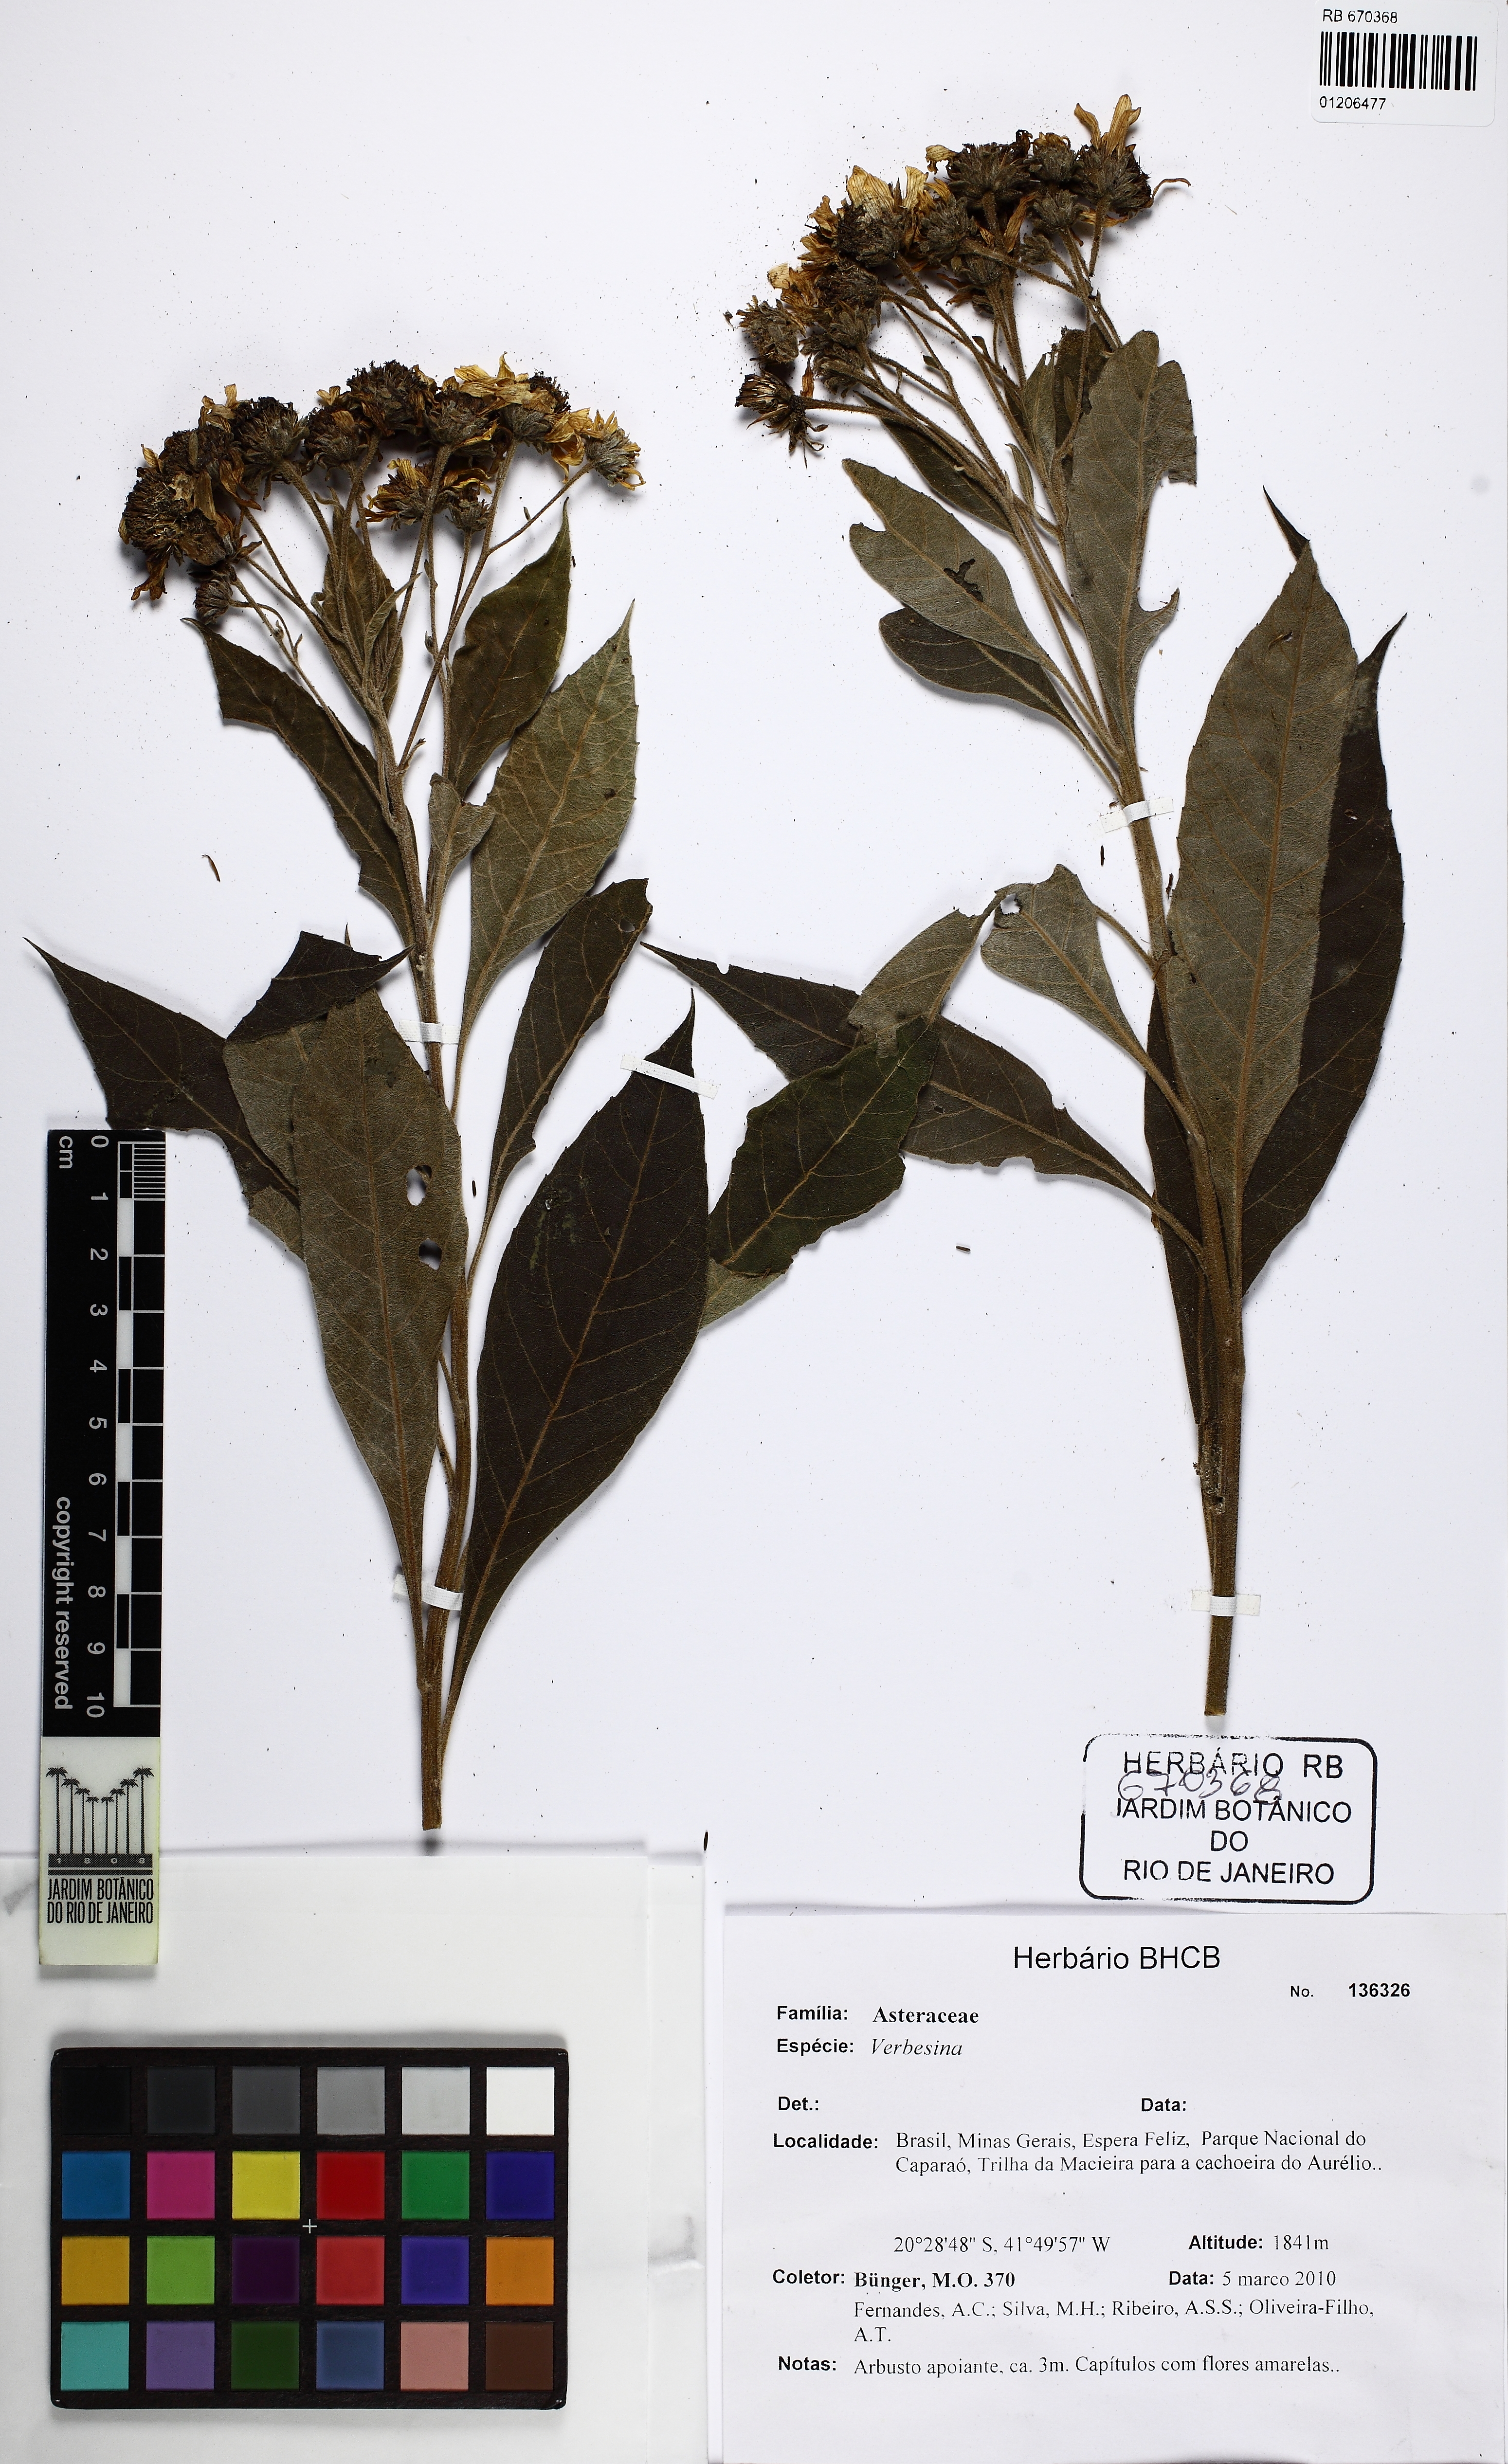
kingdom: Plantae
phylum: Tracheophyta
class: Magnoliopsida
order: Asterales
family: Asteraceae
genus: Verbesina
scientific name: Verbesina
